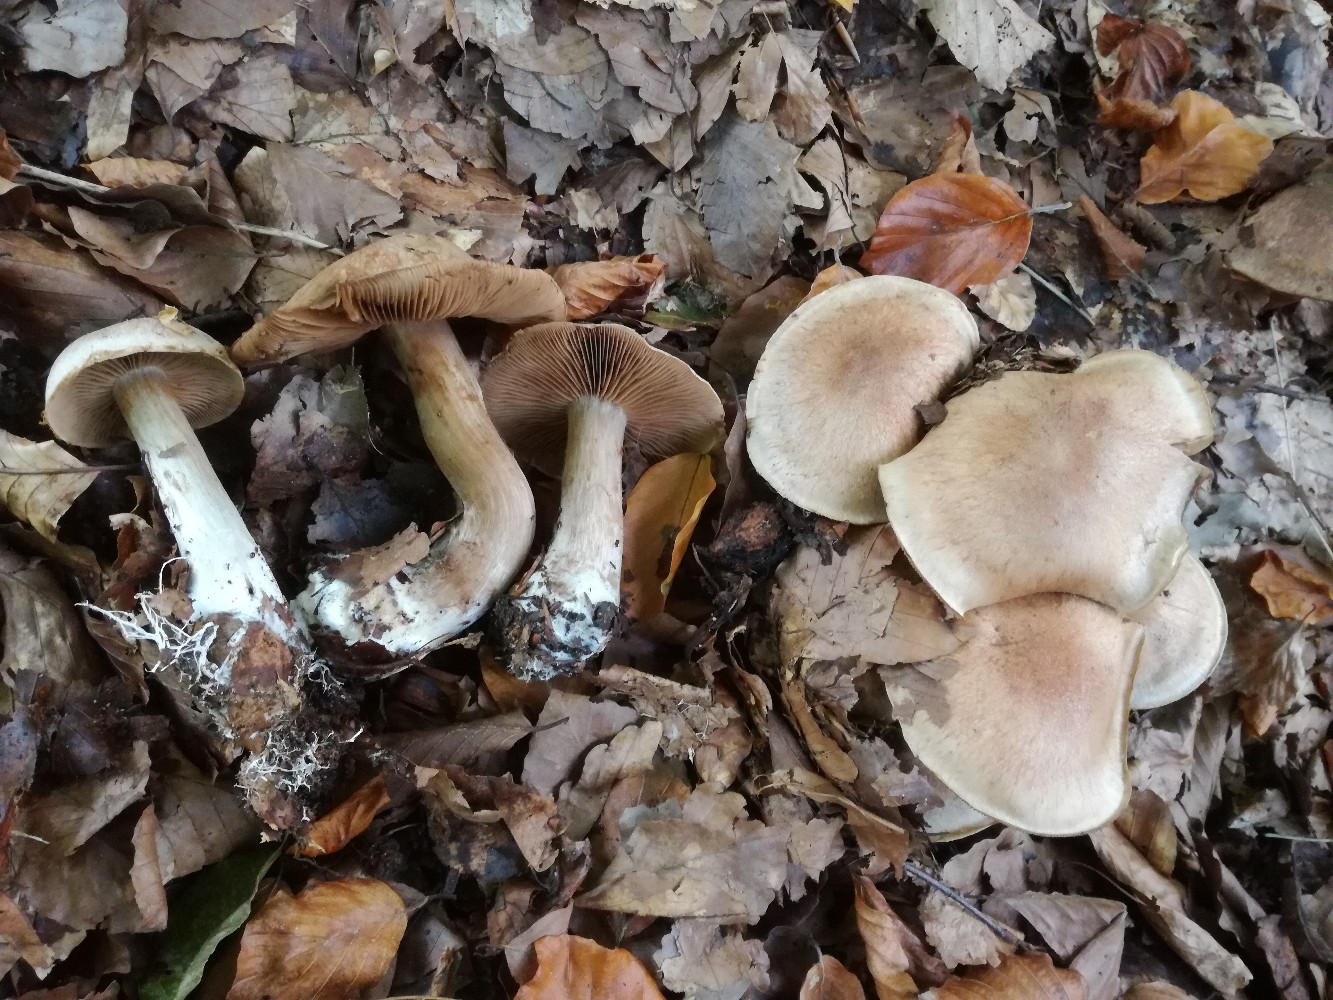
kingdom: Fungi
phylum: Basidiomycota
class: Agaricomycetes
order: Agaricales
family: Cortinariaceae
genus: Cortinarius
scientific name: Cortinarius aprinus
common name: vildsvine-slørhat
